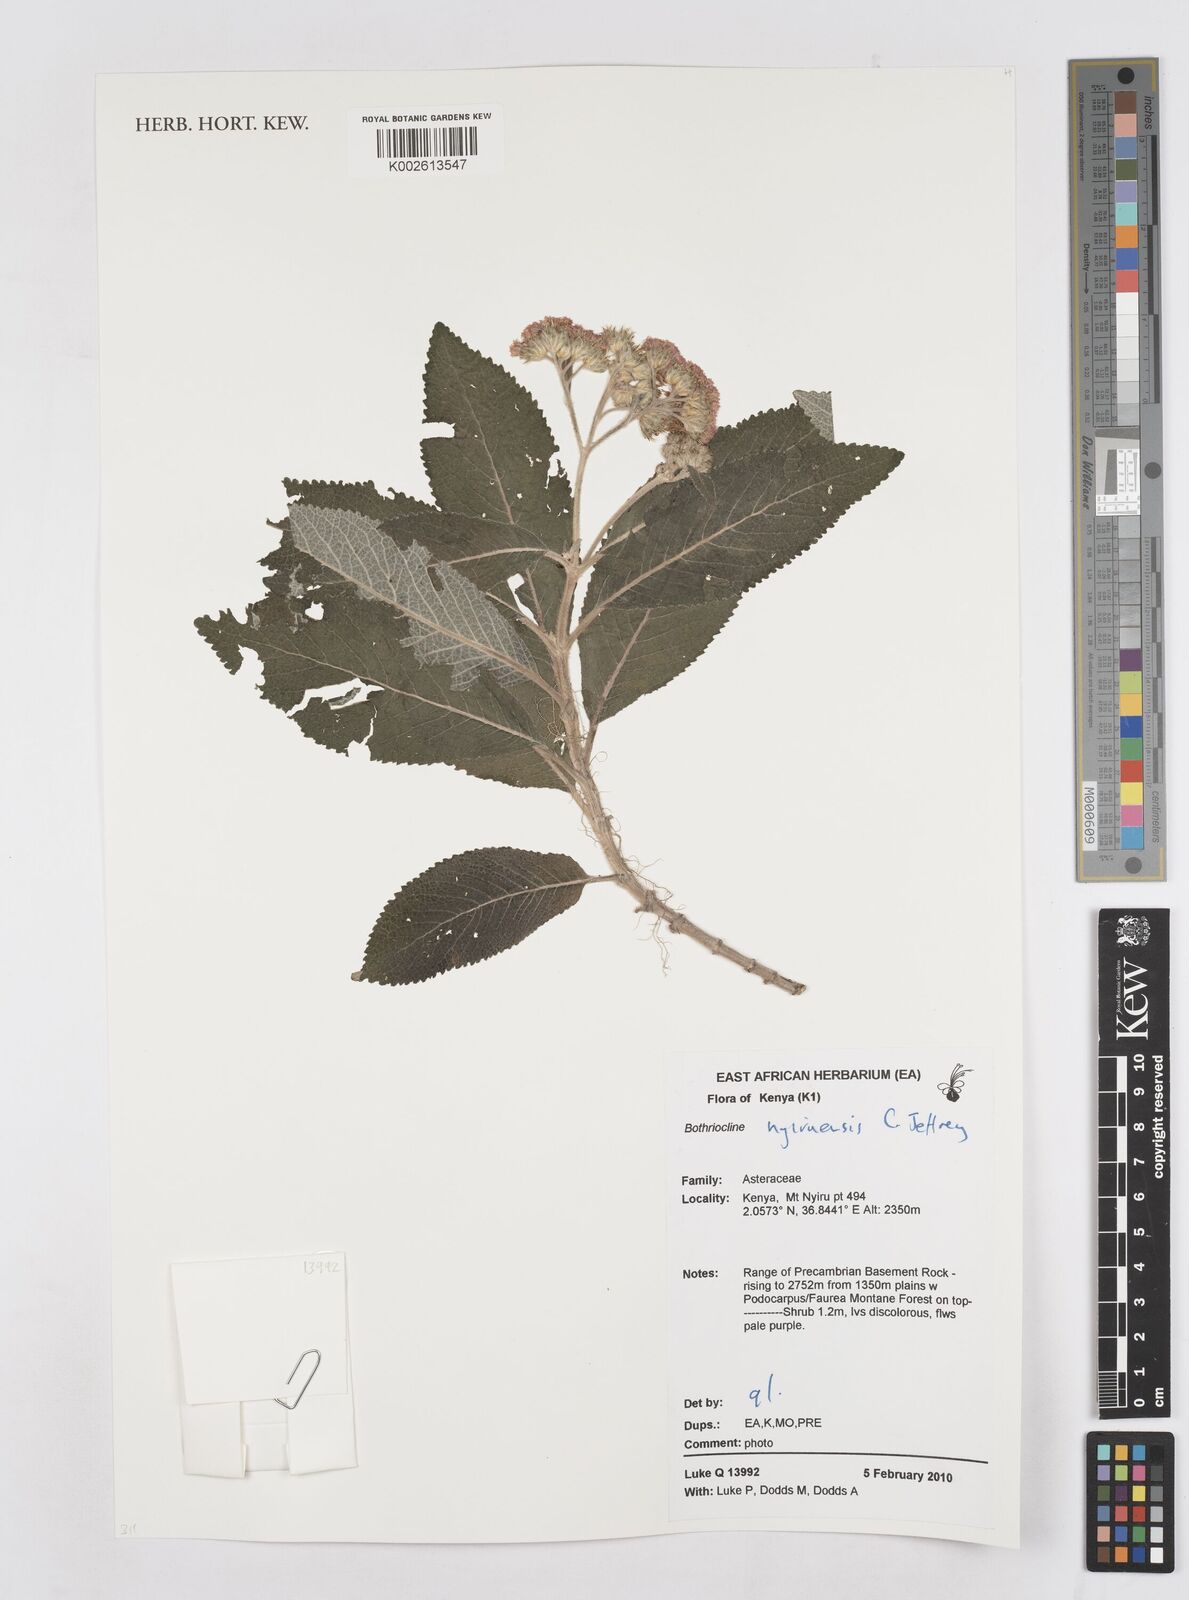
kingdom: Plantae
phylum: Tracheophyta
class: Magnoliopsida
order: Asterales
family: Asteraceae
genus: Bothriocline
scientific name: Bothriocline nyiruensis
